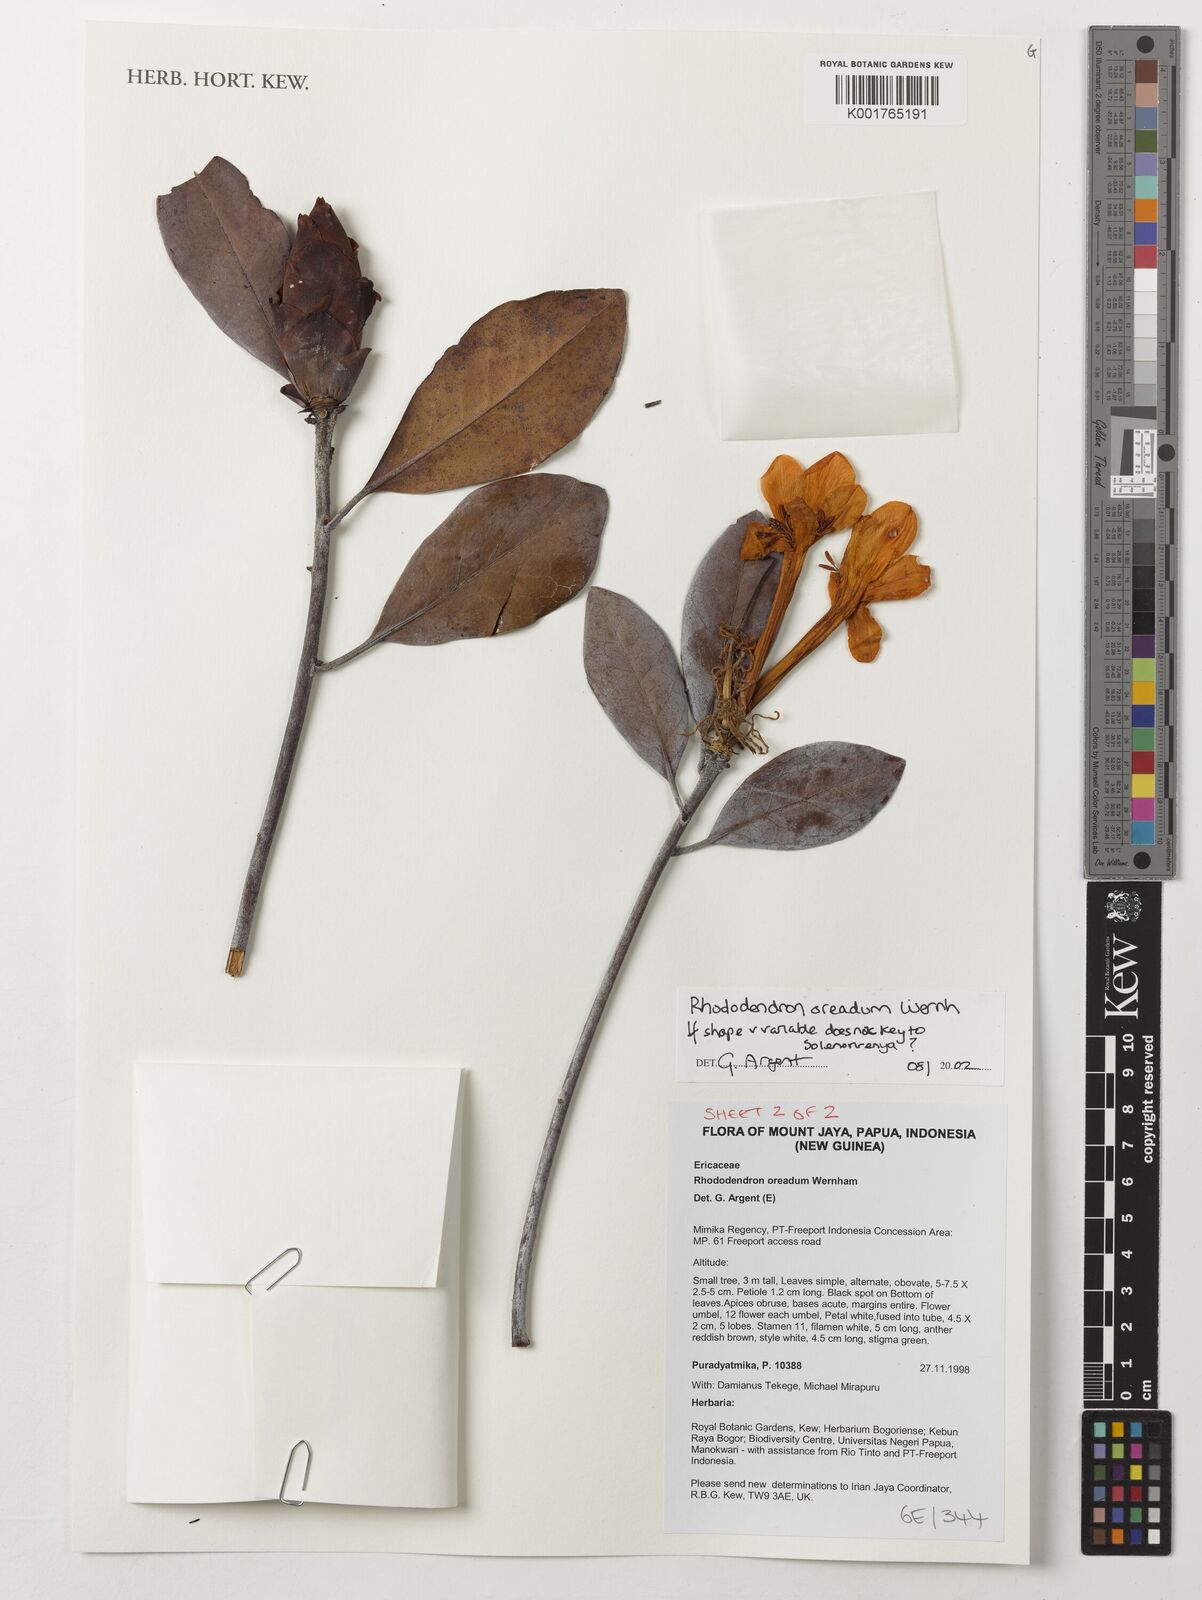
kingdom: Plantae
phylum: Tracheophyta
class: Magnoliopsida
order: Ericales
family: Ericaceae
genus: Rhododendron
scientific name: Rhododendron oreadum
